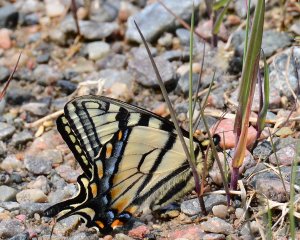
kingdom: Animalia
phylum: Arthropoda
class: Insecta
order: Lepidoptera
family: Papilionidae
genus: Pterourus
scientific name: Pterourus canadensis
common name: Canadian Tiger Swallowtail
